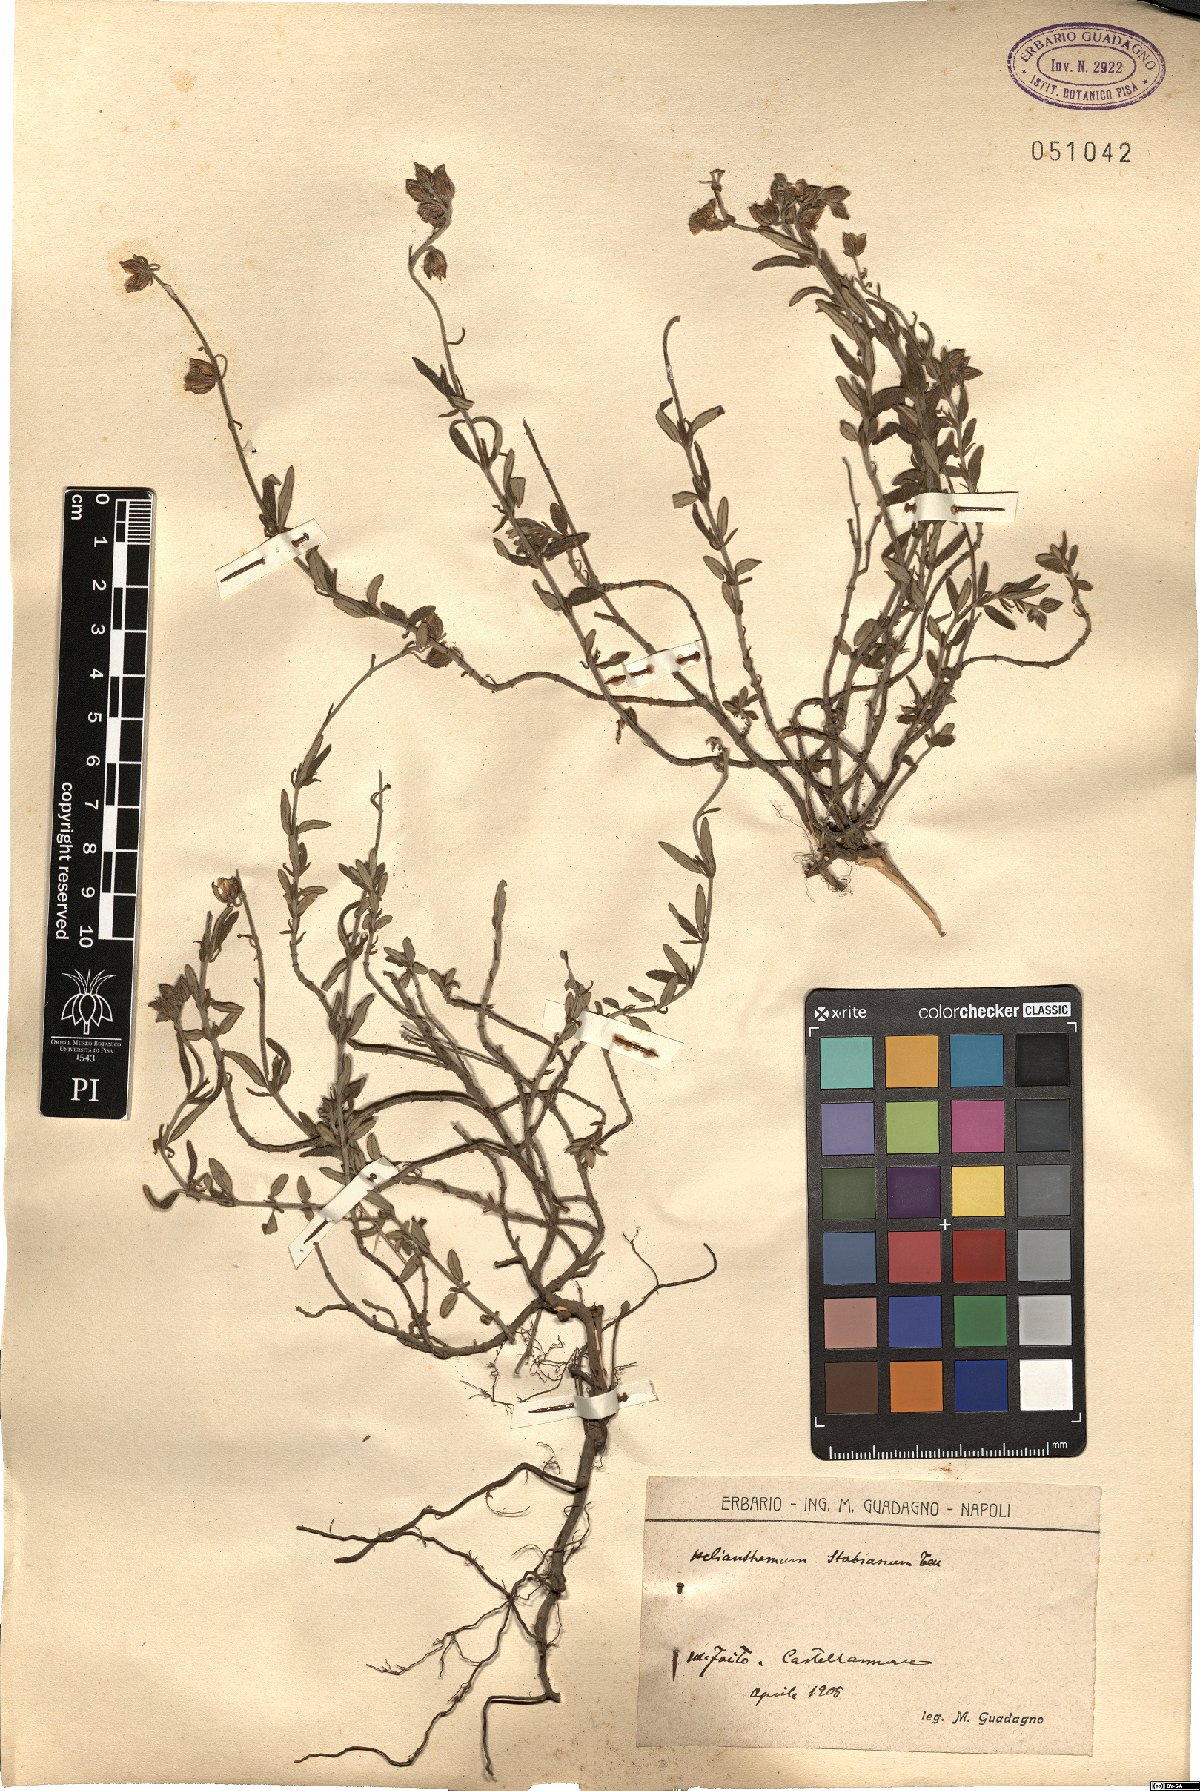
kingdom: Plantae
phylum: Tracheophyta
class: Magnoliopsida
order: Malvales
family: Cistaceae
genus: Helianthemum
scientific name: Helianthemum croceum
